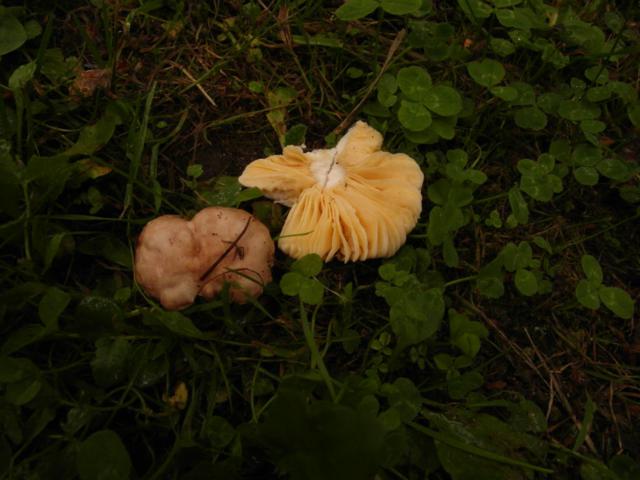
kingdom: Fungi
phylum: Basidiomycota
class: Agaricomycetes
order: Russulales
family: Russulaceae
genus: Russula
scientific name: Russula odorata
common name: duft-skørhat
